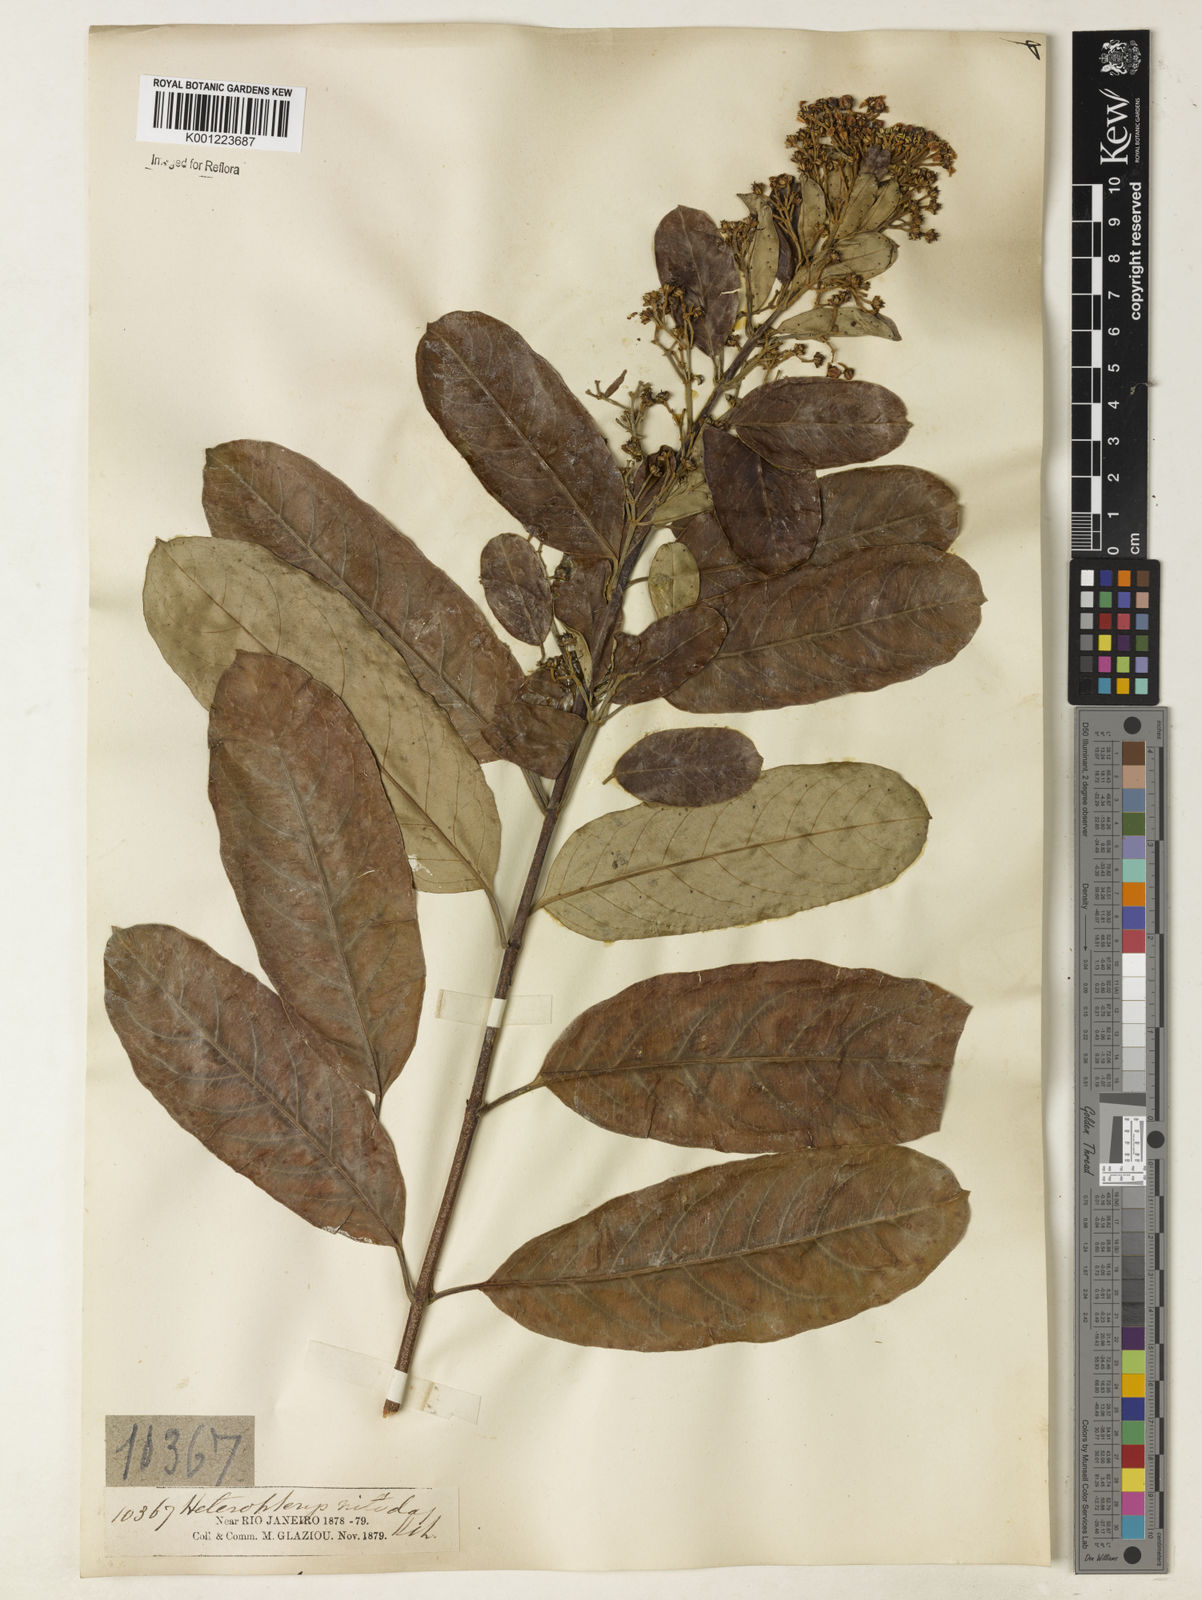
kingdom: Plantae
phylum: Tracheophyta
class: Magnoliopsida
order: Malpighiales
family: Malpighiaceae
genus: Heteropterys
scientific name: Heteropterys nitida
